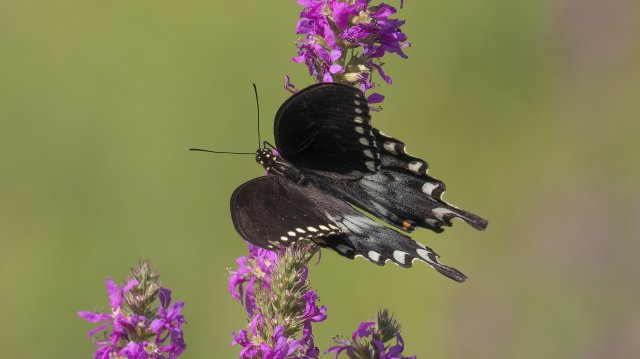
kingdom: Animalia
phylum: Arthropoda
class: Insecta
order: Lepidoptera
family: Papilionidae
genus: Pterourus
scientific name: Pterourus troilus
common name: Spicebush Swallowtail
